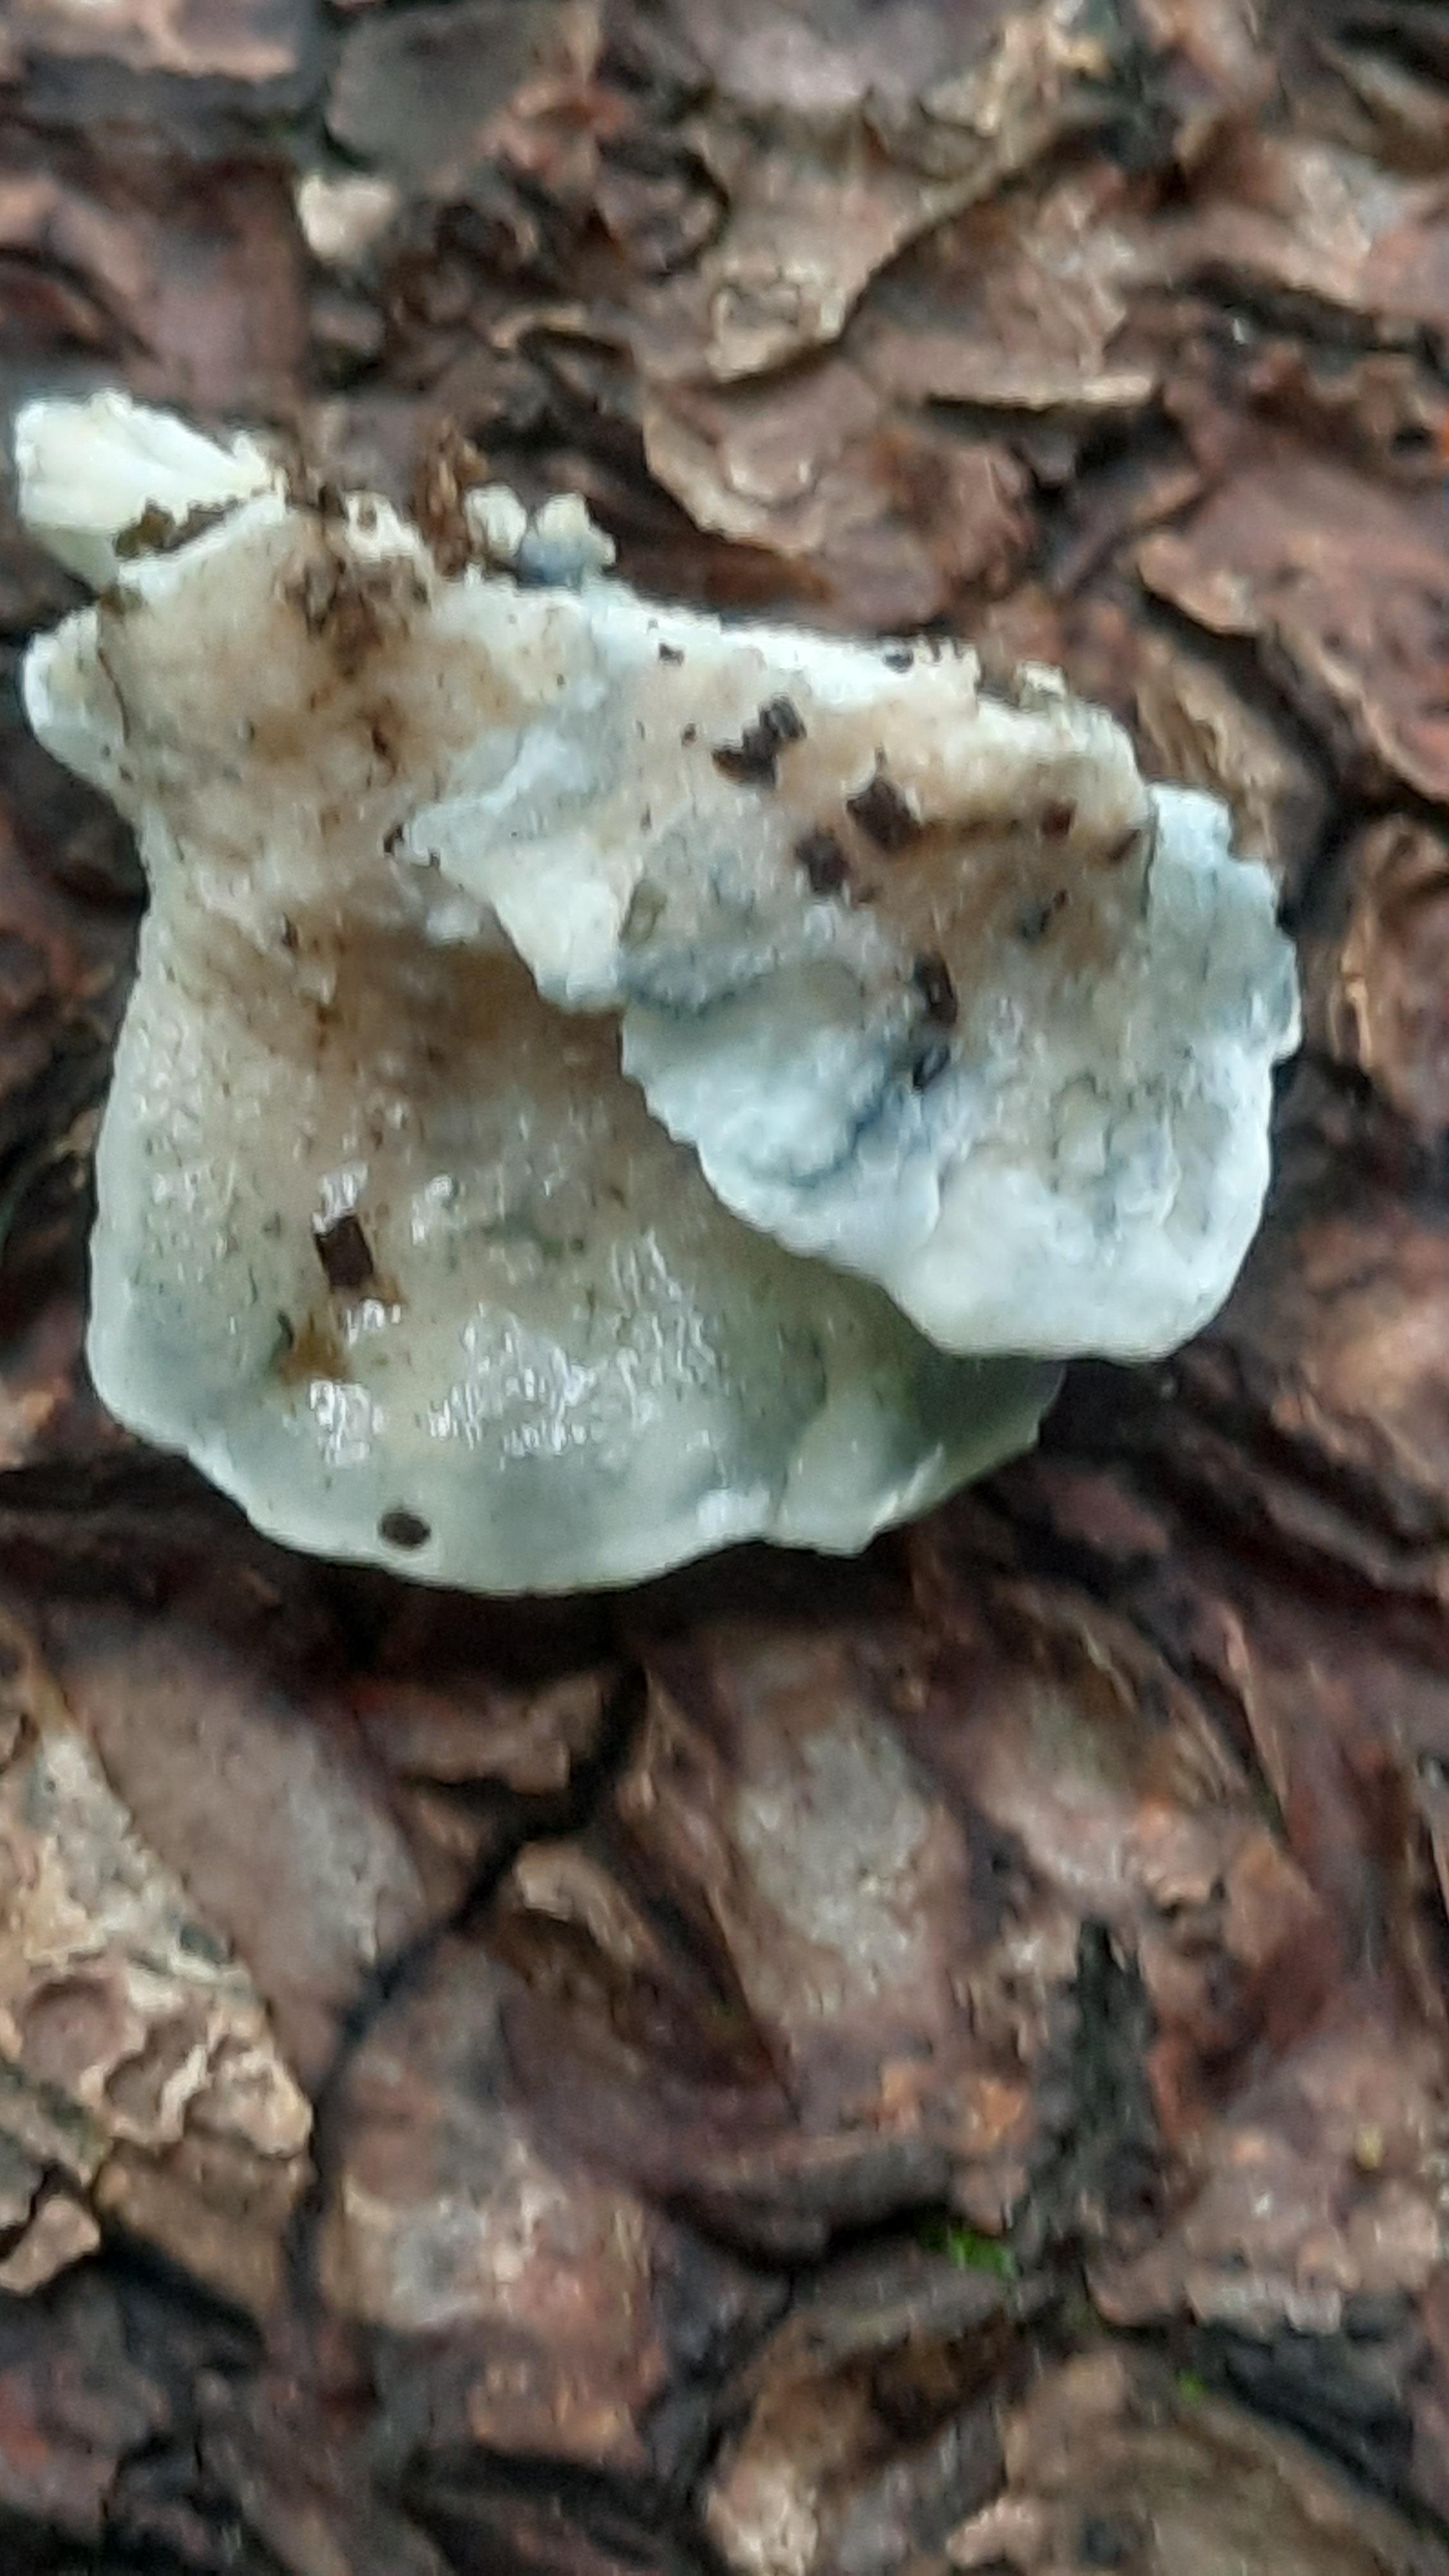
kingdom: Fungi
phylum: Basidiomycota
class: Agaricomycetes
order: Polyporales
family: Polyporaceae
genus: Cyanosporus
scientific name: Cyanosporus caesius
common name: blålig kødporesvamp
